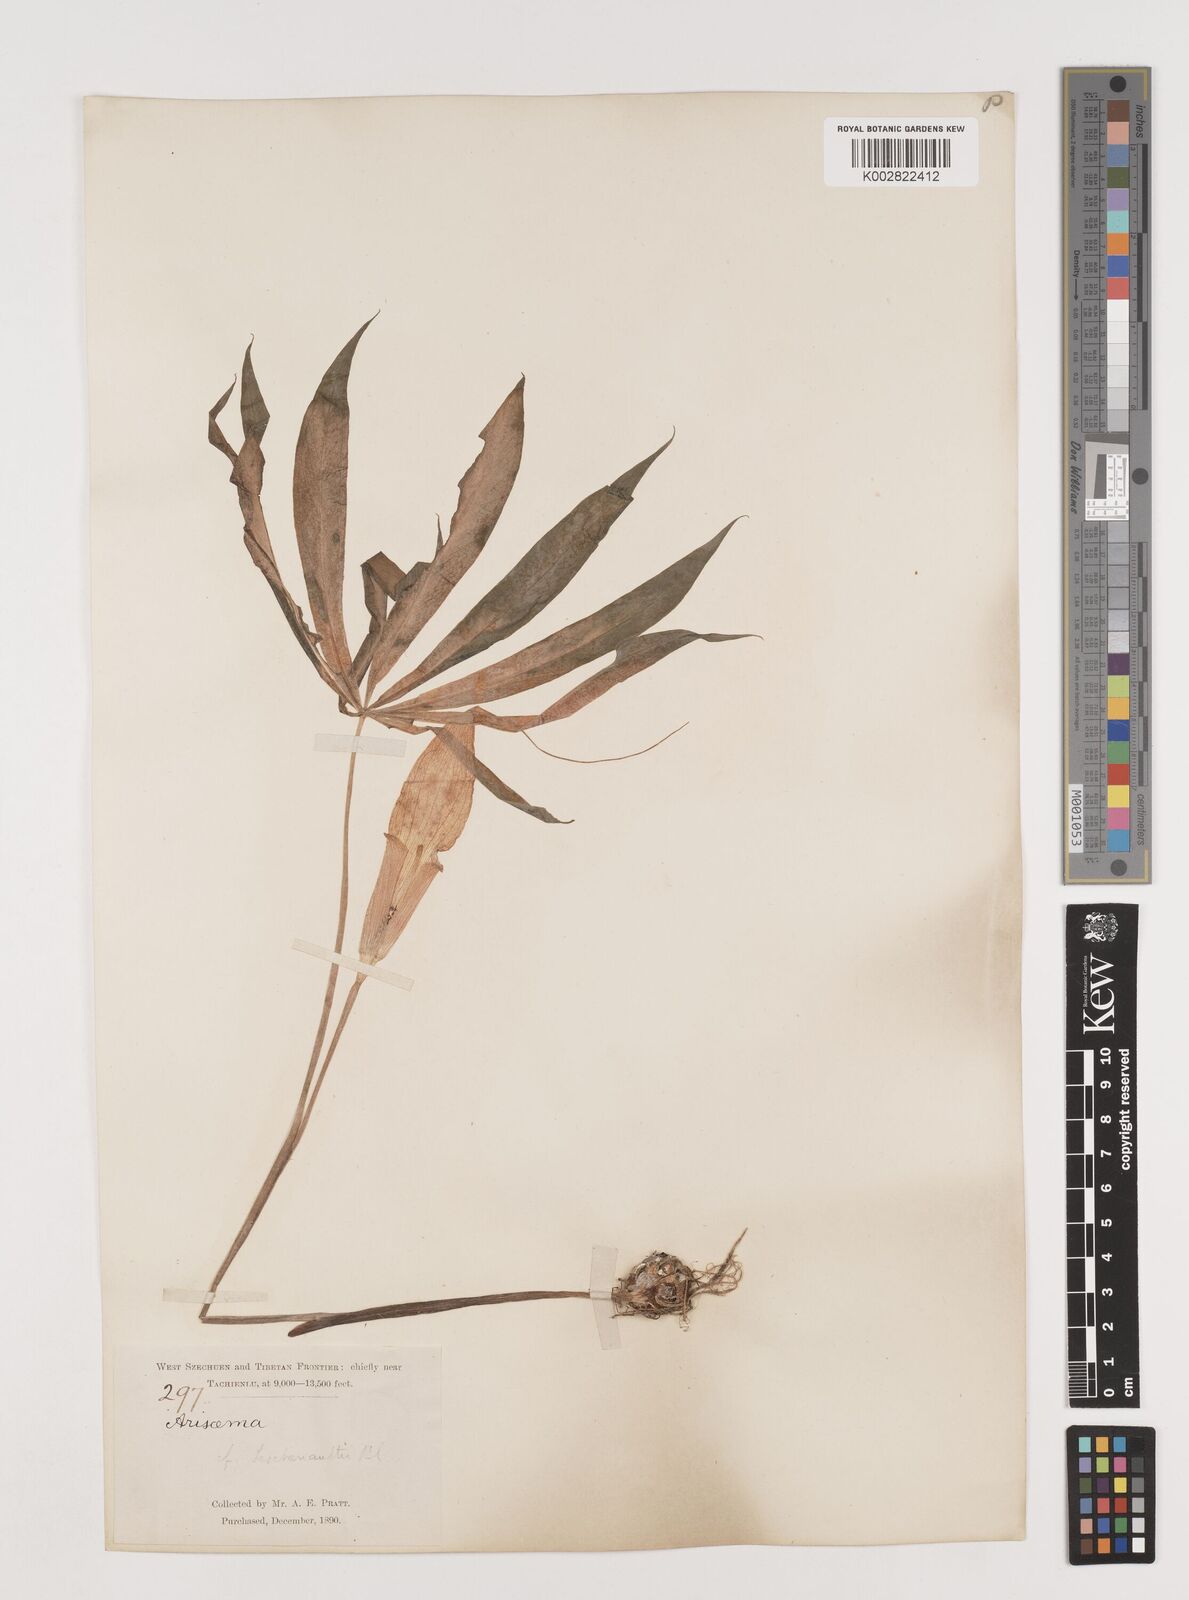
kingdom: Plantae
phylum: Tracheophyta
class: Liliopsida
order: Alismatales
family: Araceae
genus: Arisaema
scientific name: Arisaema erubescens
